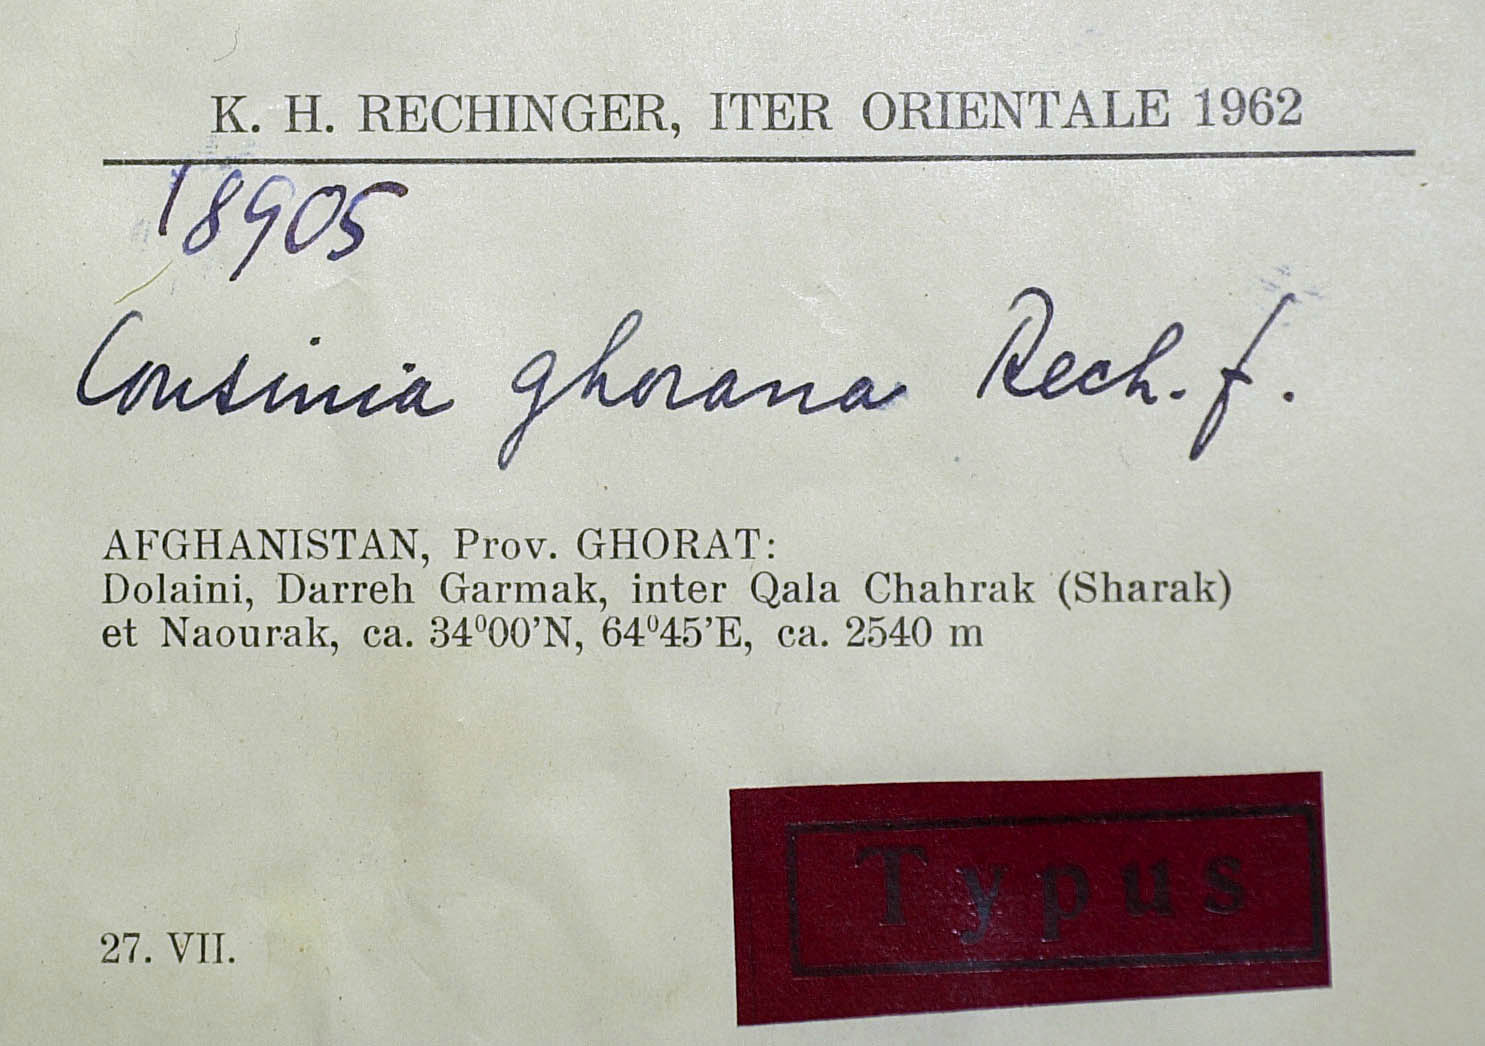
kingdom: Plantae
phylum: Tracheophyta
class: Magnoliopsida
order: Asterales
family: Asteraceae
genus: Cousinia
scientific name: Cousinia ghorana
